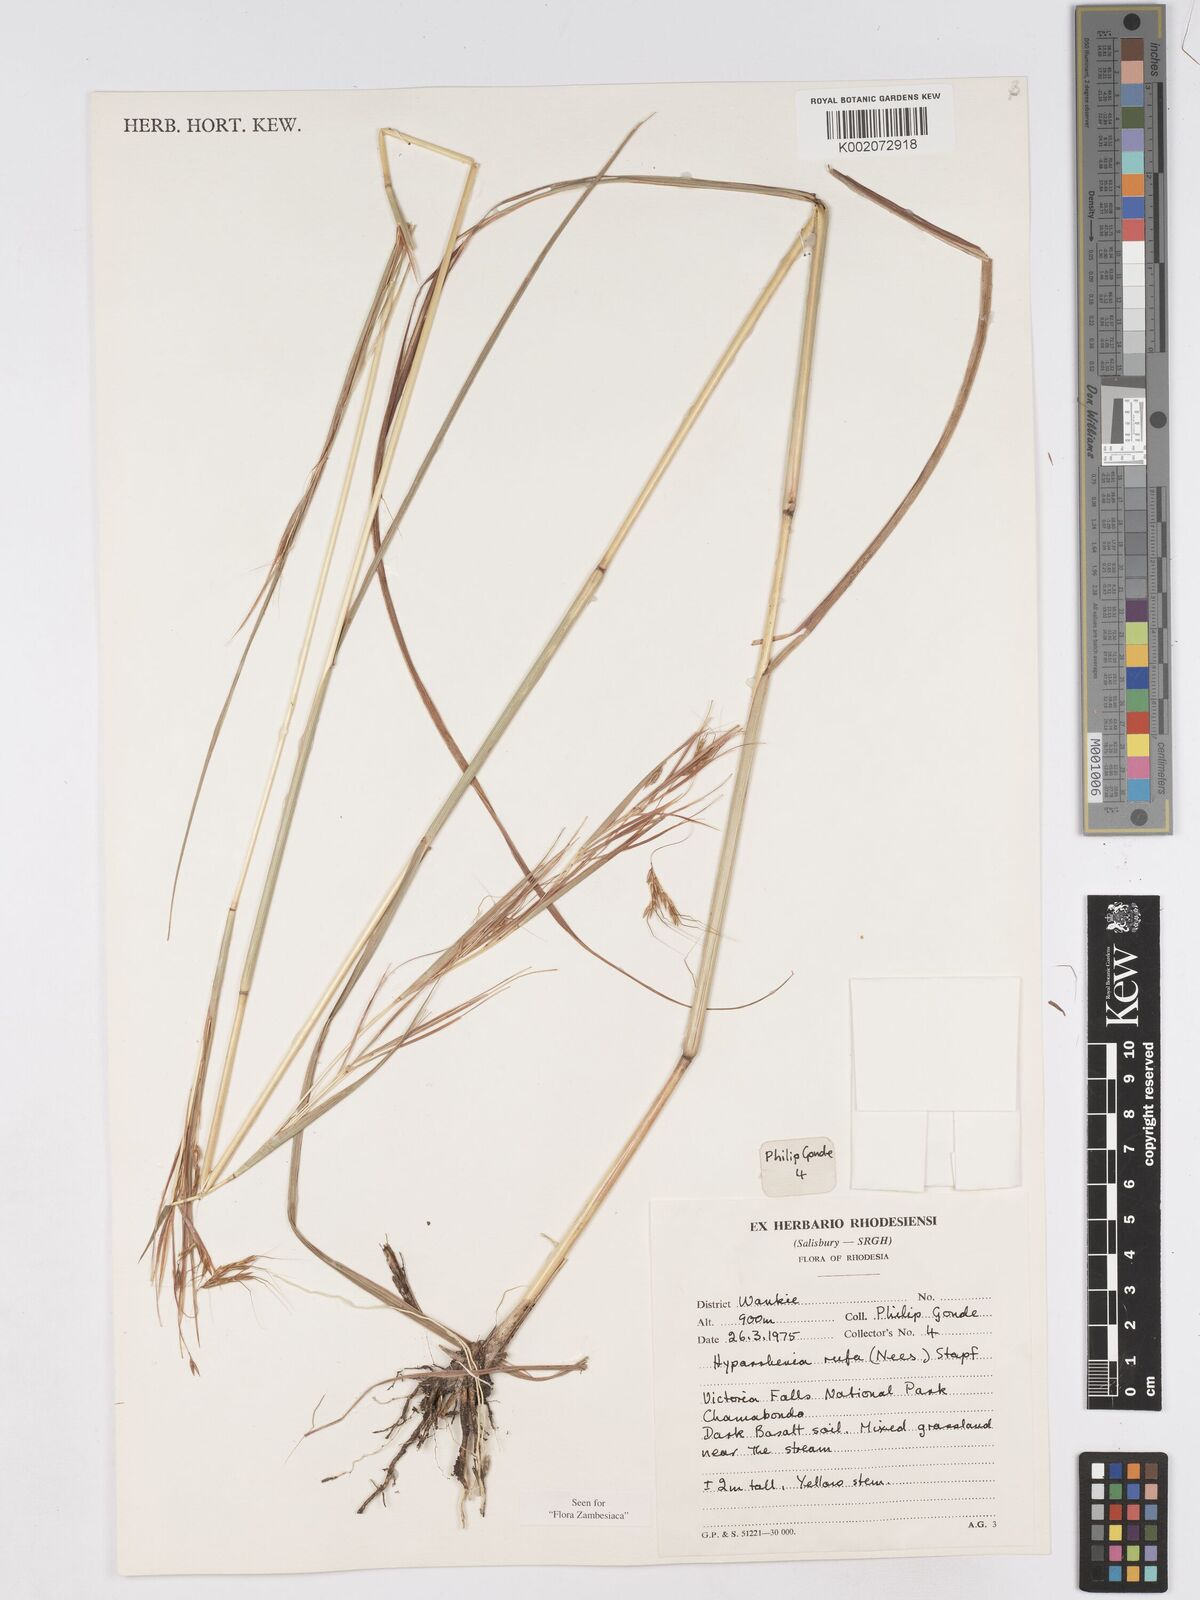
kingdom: Plantae
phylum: Tracheophyta
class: Liliopsida
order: Poales
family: Poaceae
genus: Hyparrhenia
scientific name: Hyparrhenia rufa
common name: Jaraguagrass
